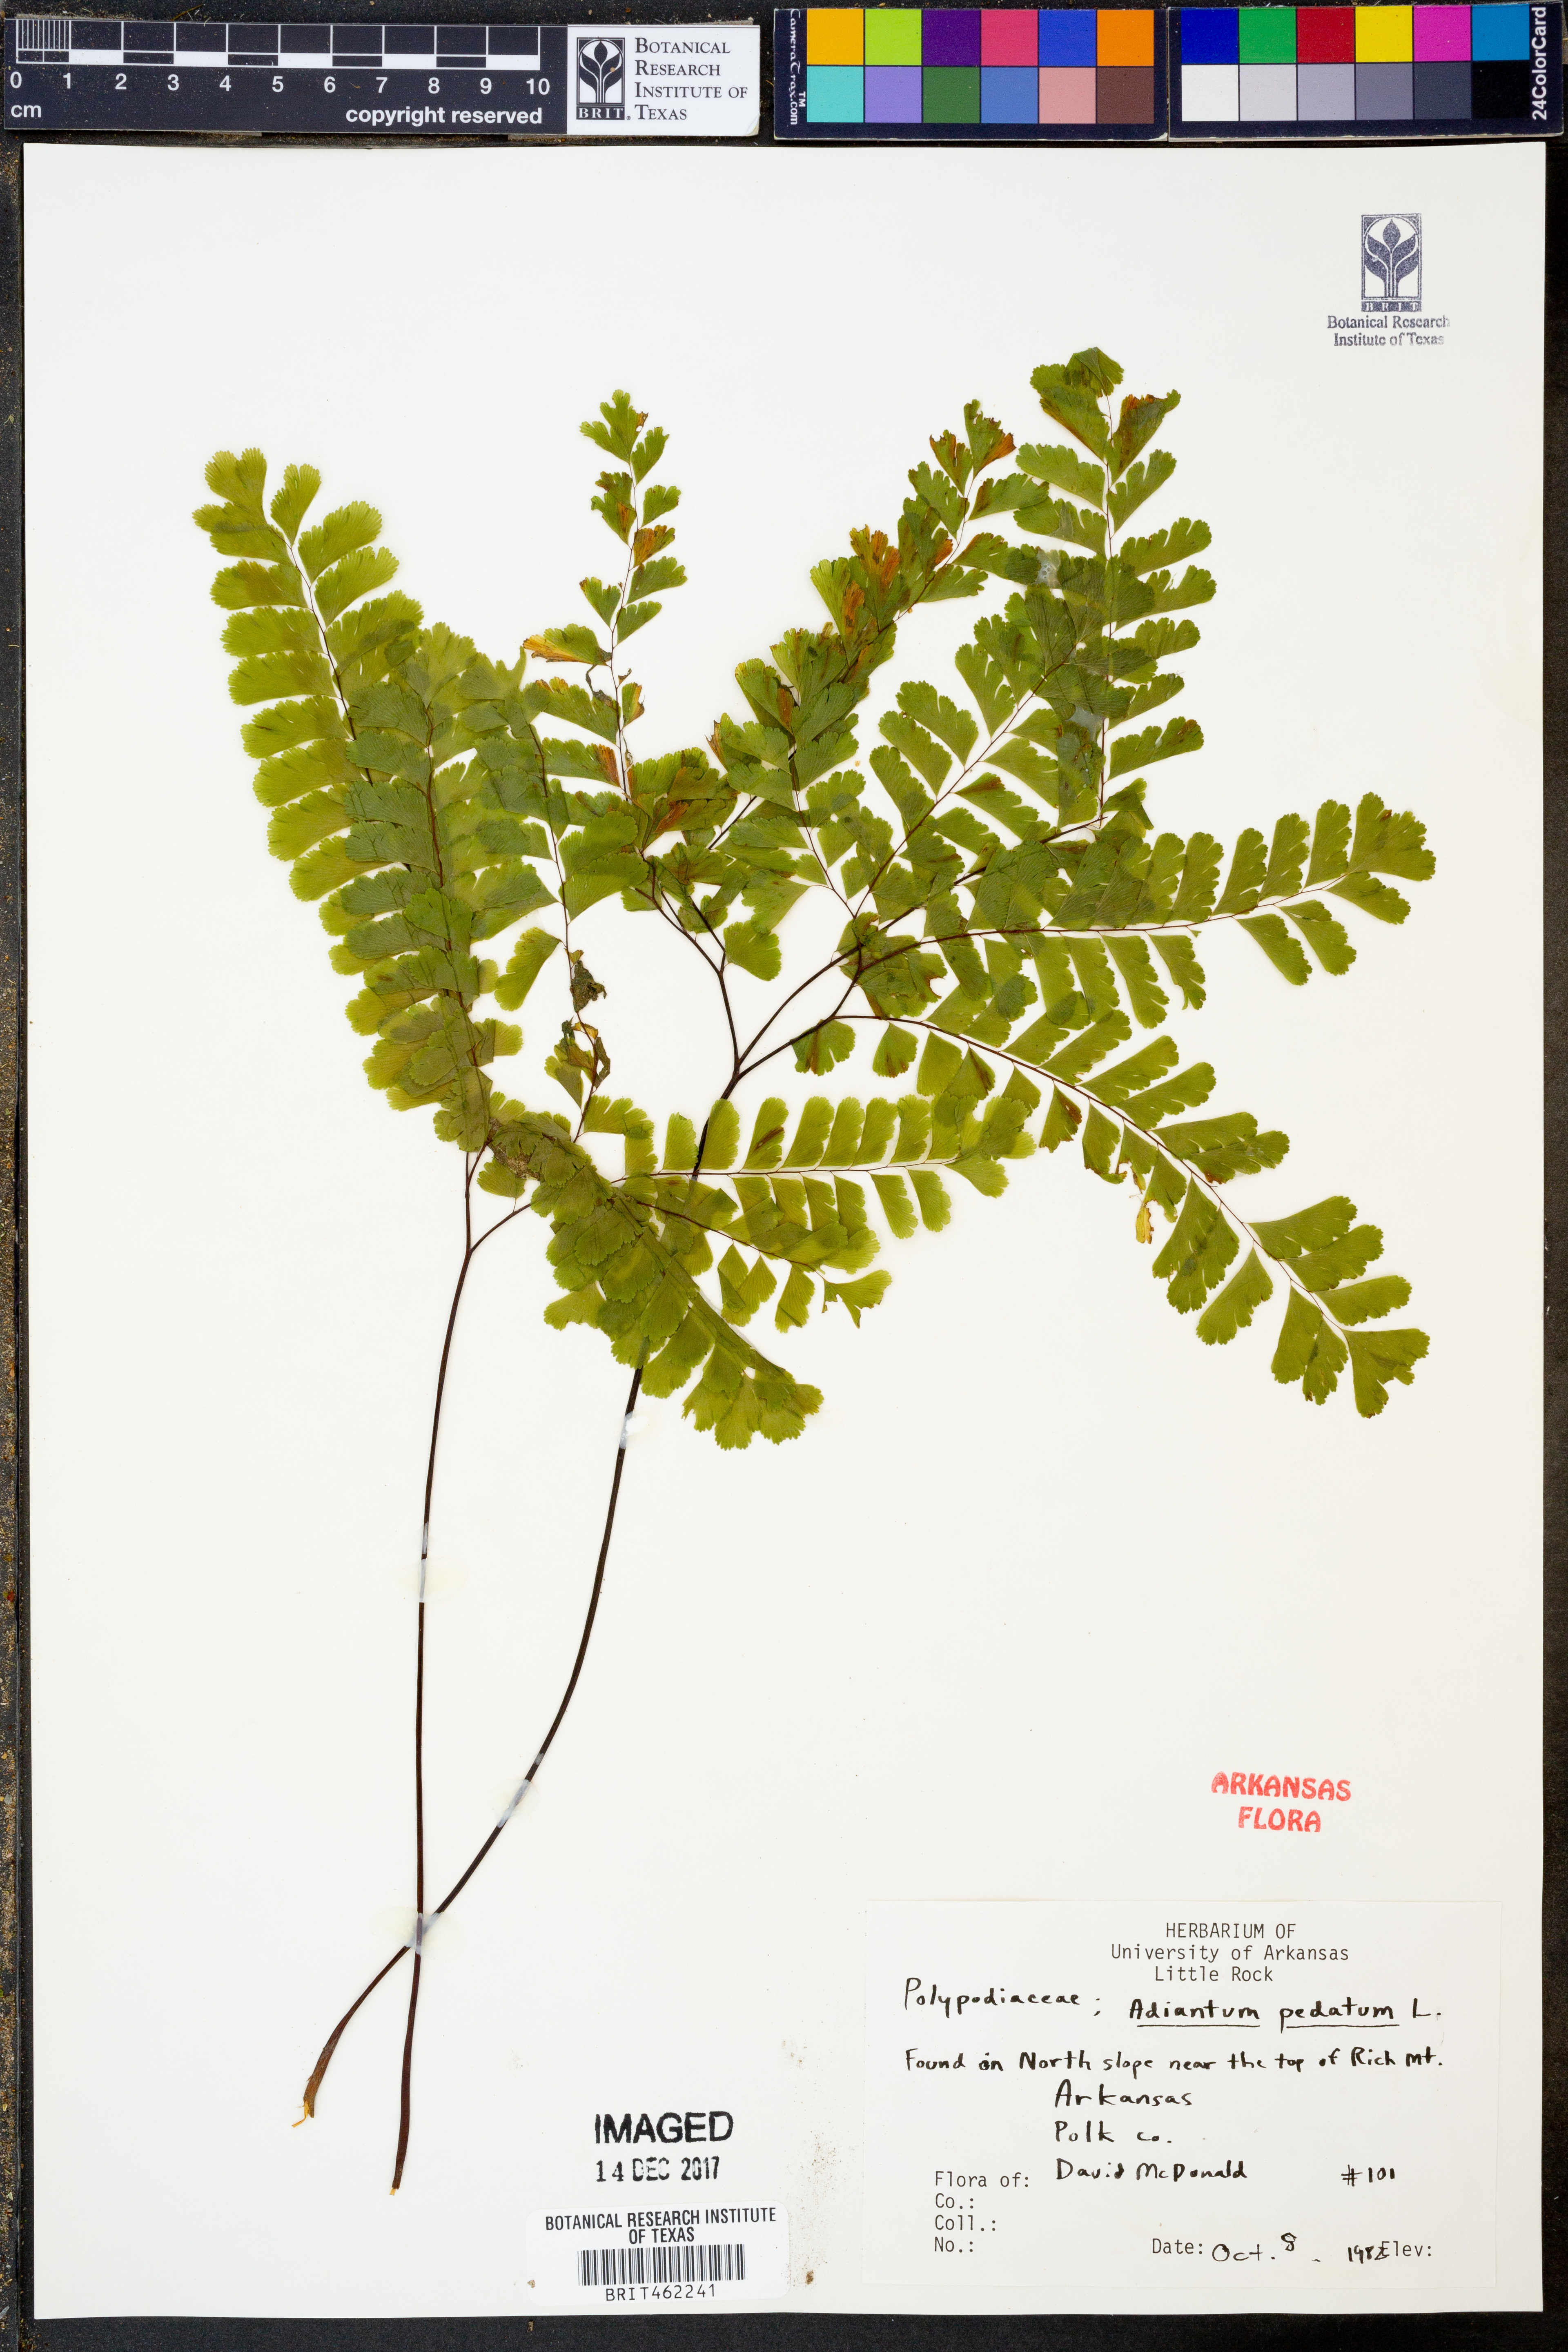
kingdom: Plantae
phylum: Tracheophyta
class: Polypodiopsida
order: Polypodiales
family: Pteridaceae
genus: Adiantum
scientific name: Adiantum pedatum
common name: Five-finger fern
